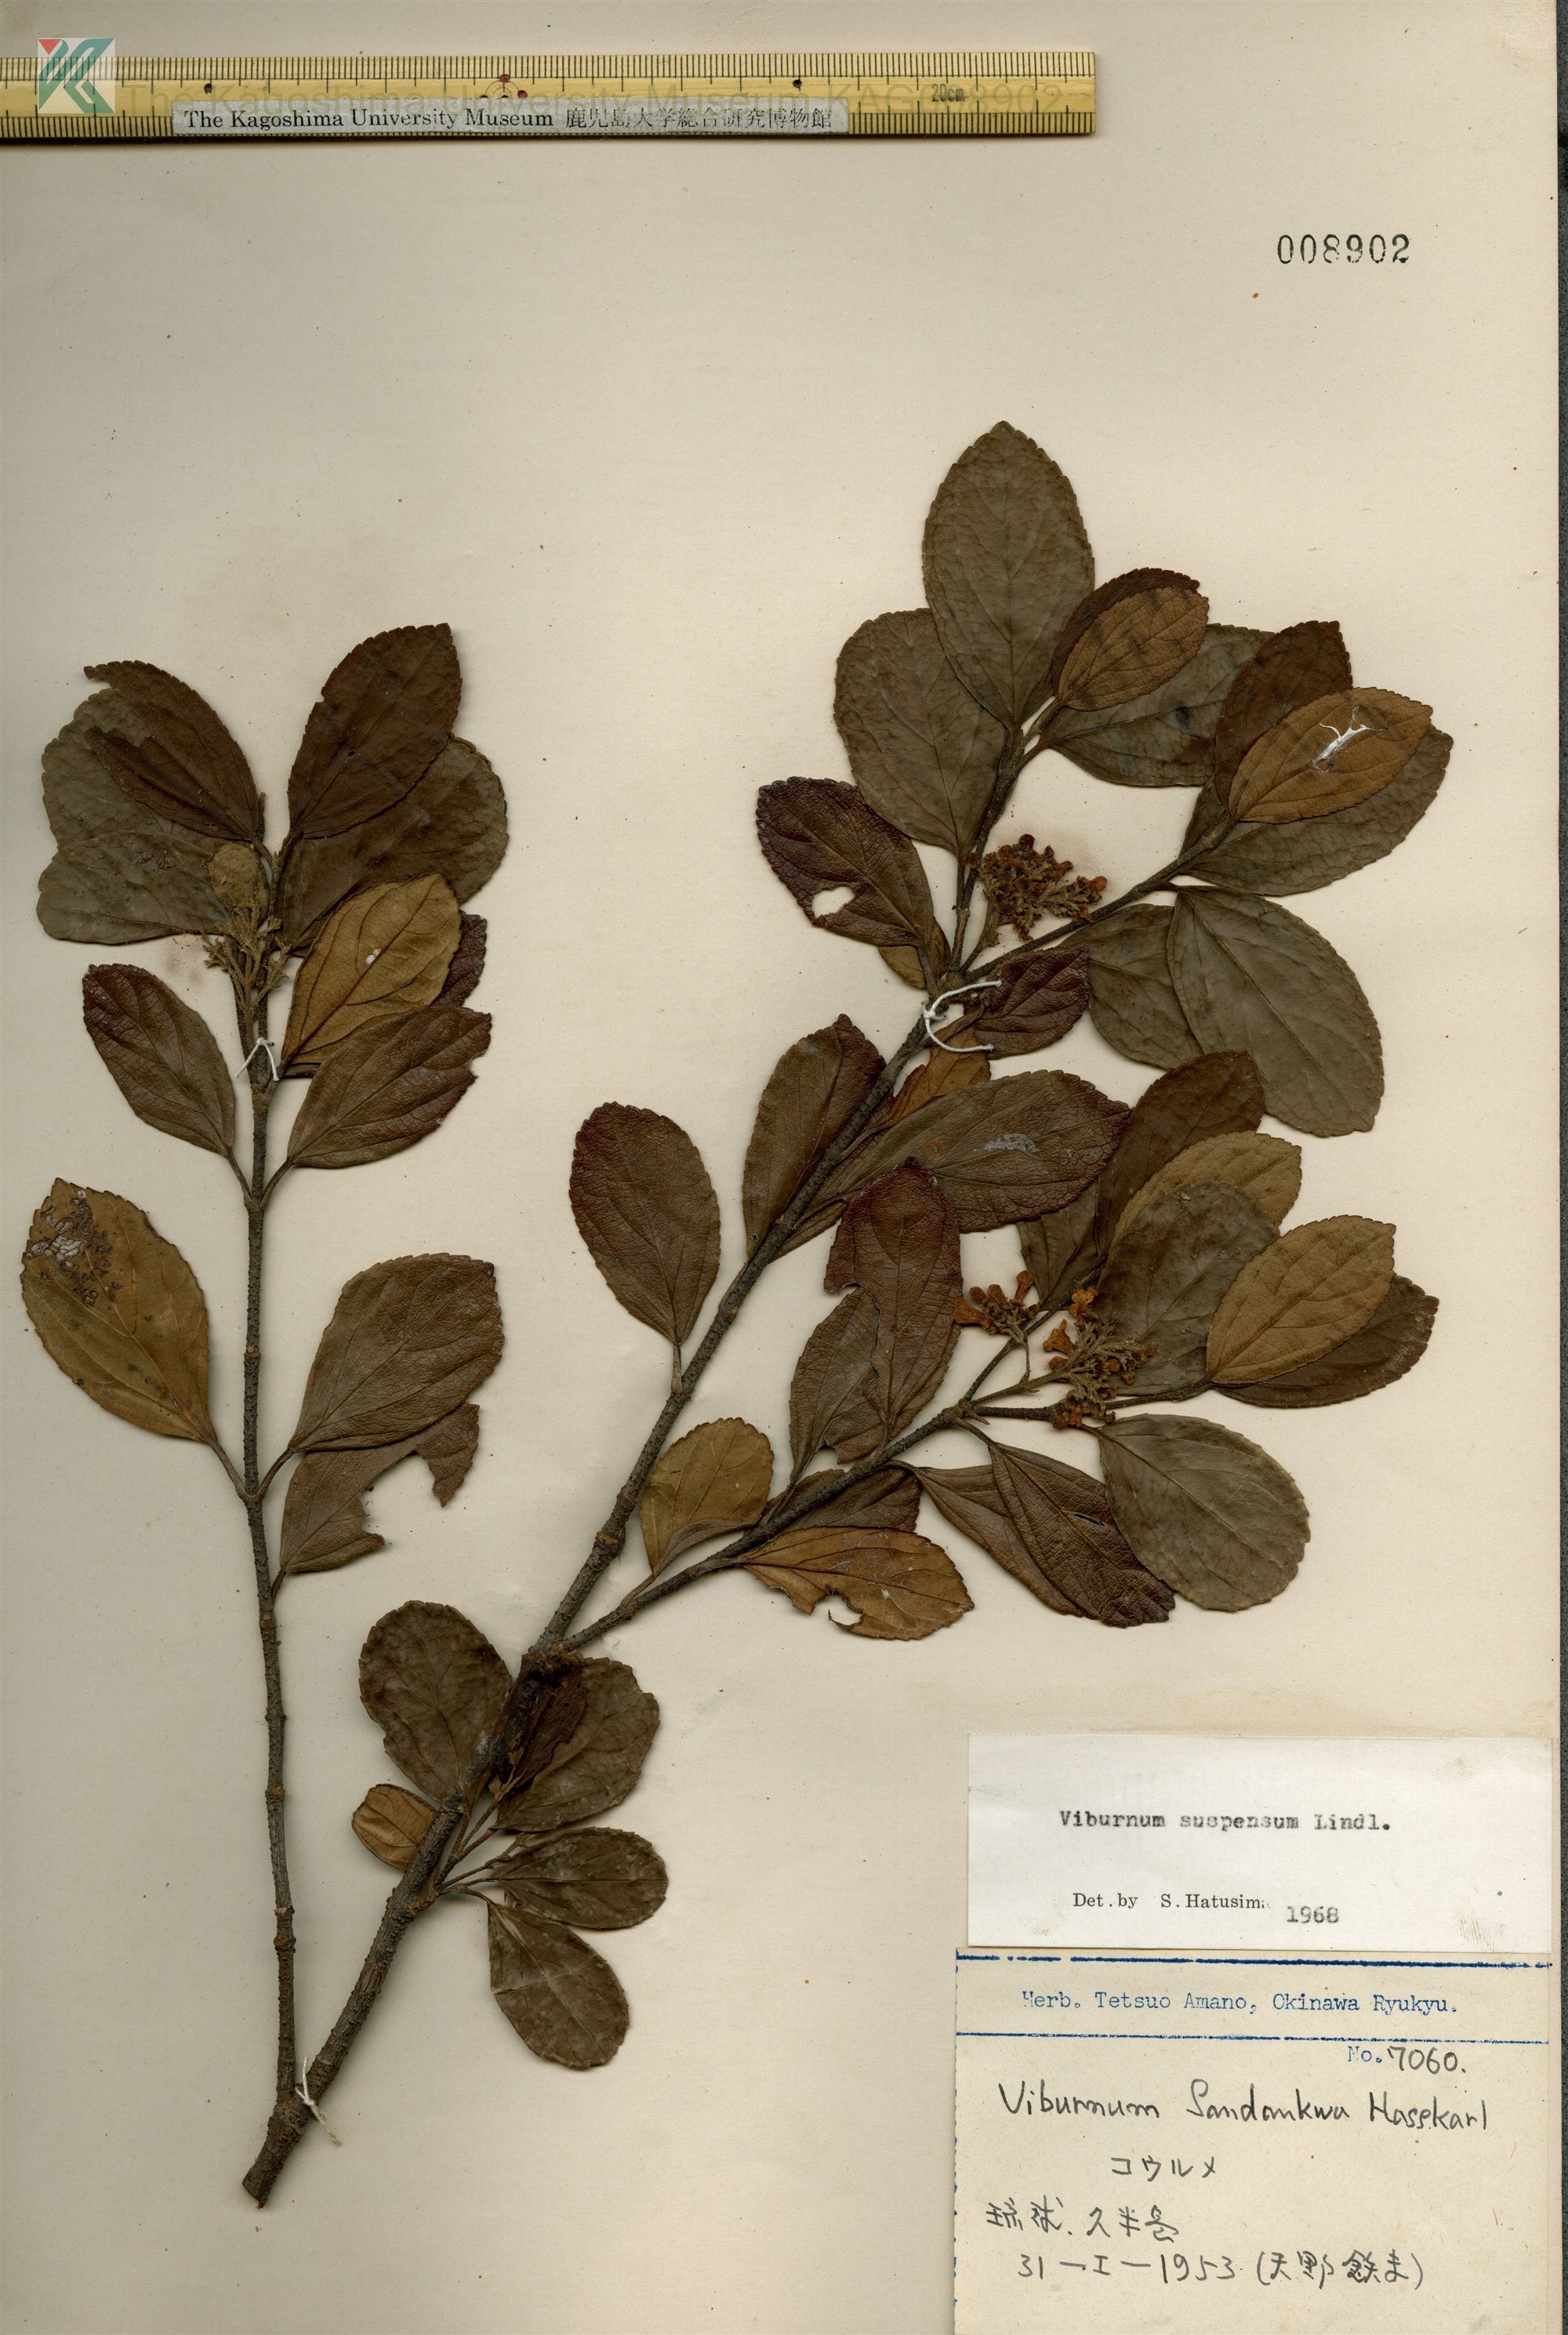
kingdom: Plantae
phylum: Tracheophyta
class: Magnoliopsida
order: Dipsacales
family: Viburnaceae
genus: Viburnum
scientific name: Viburnum suspensum
